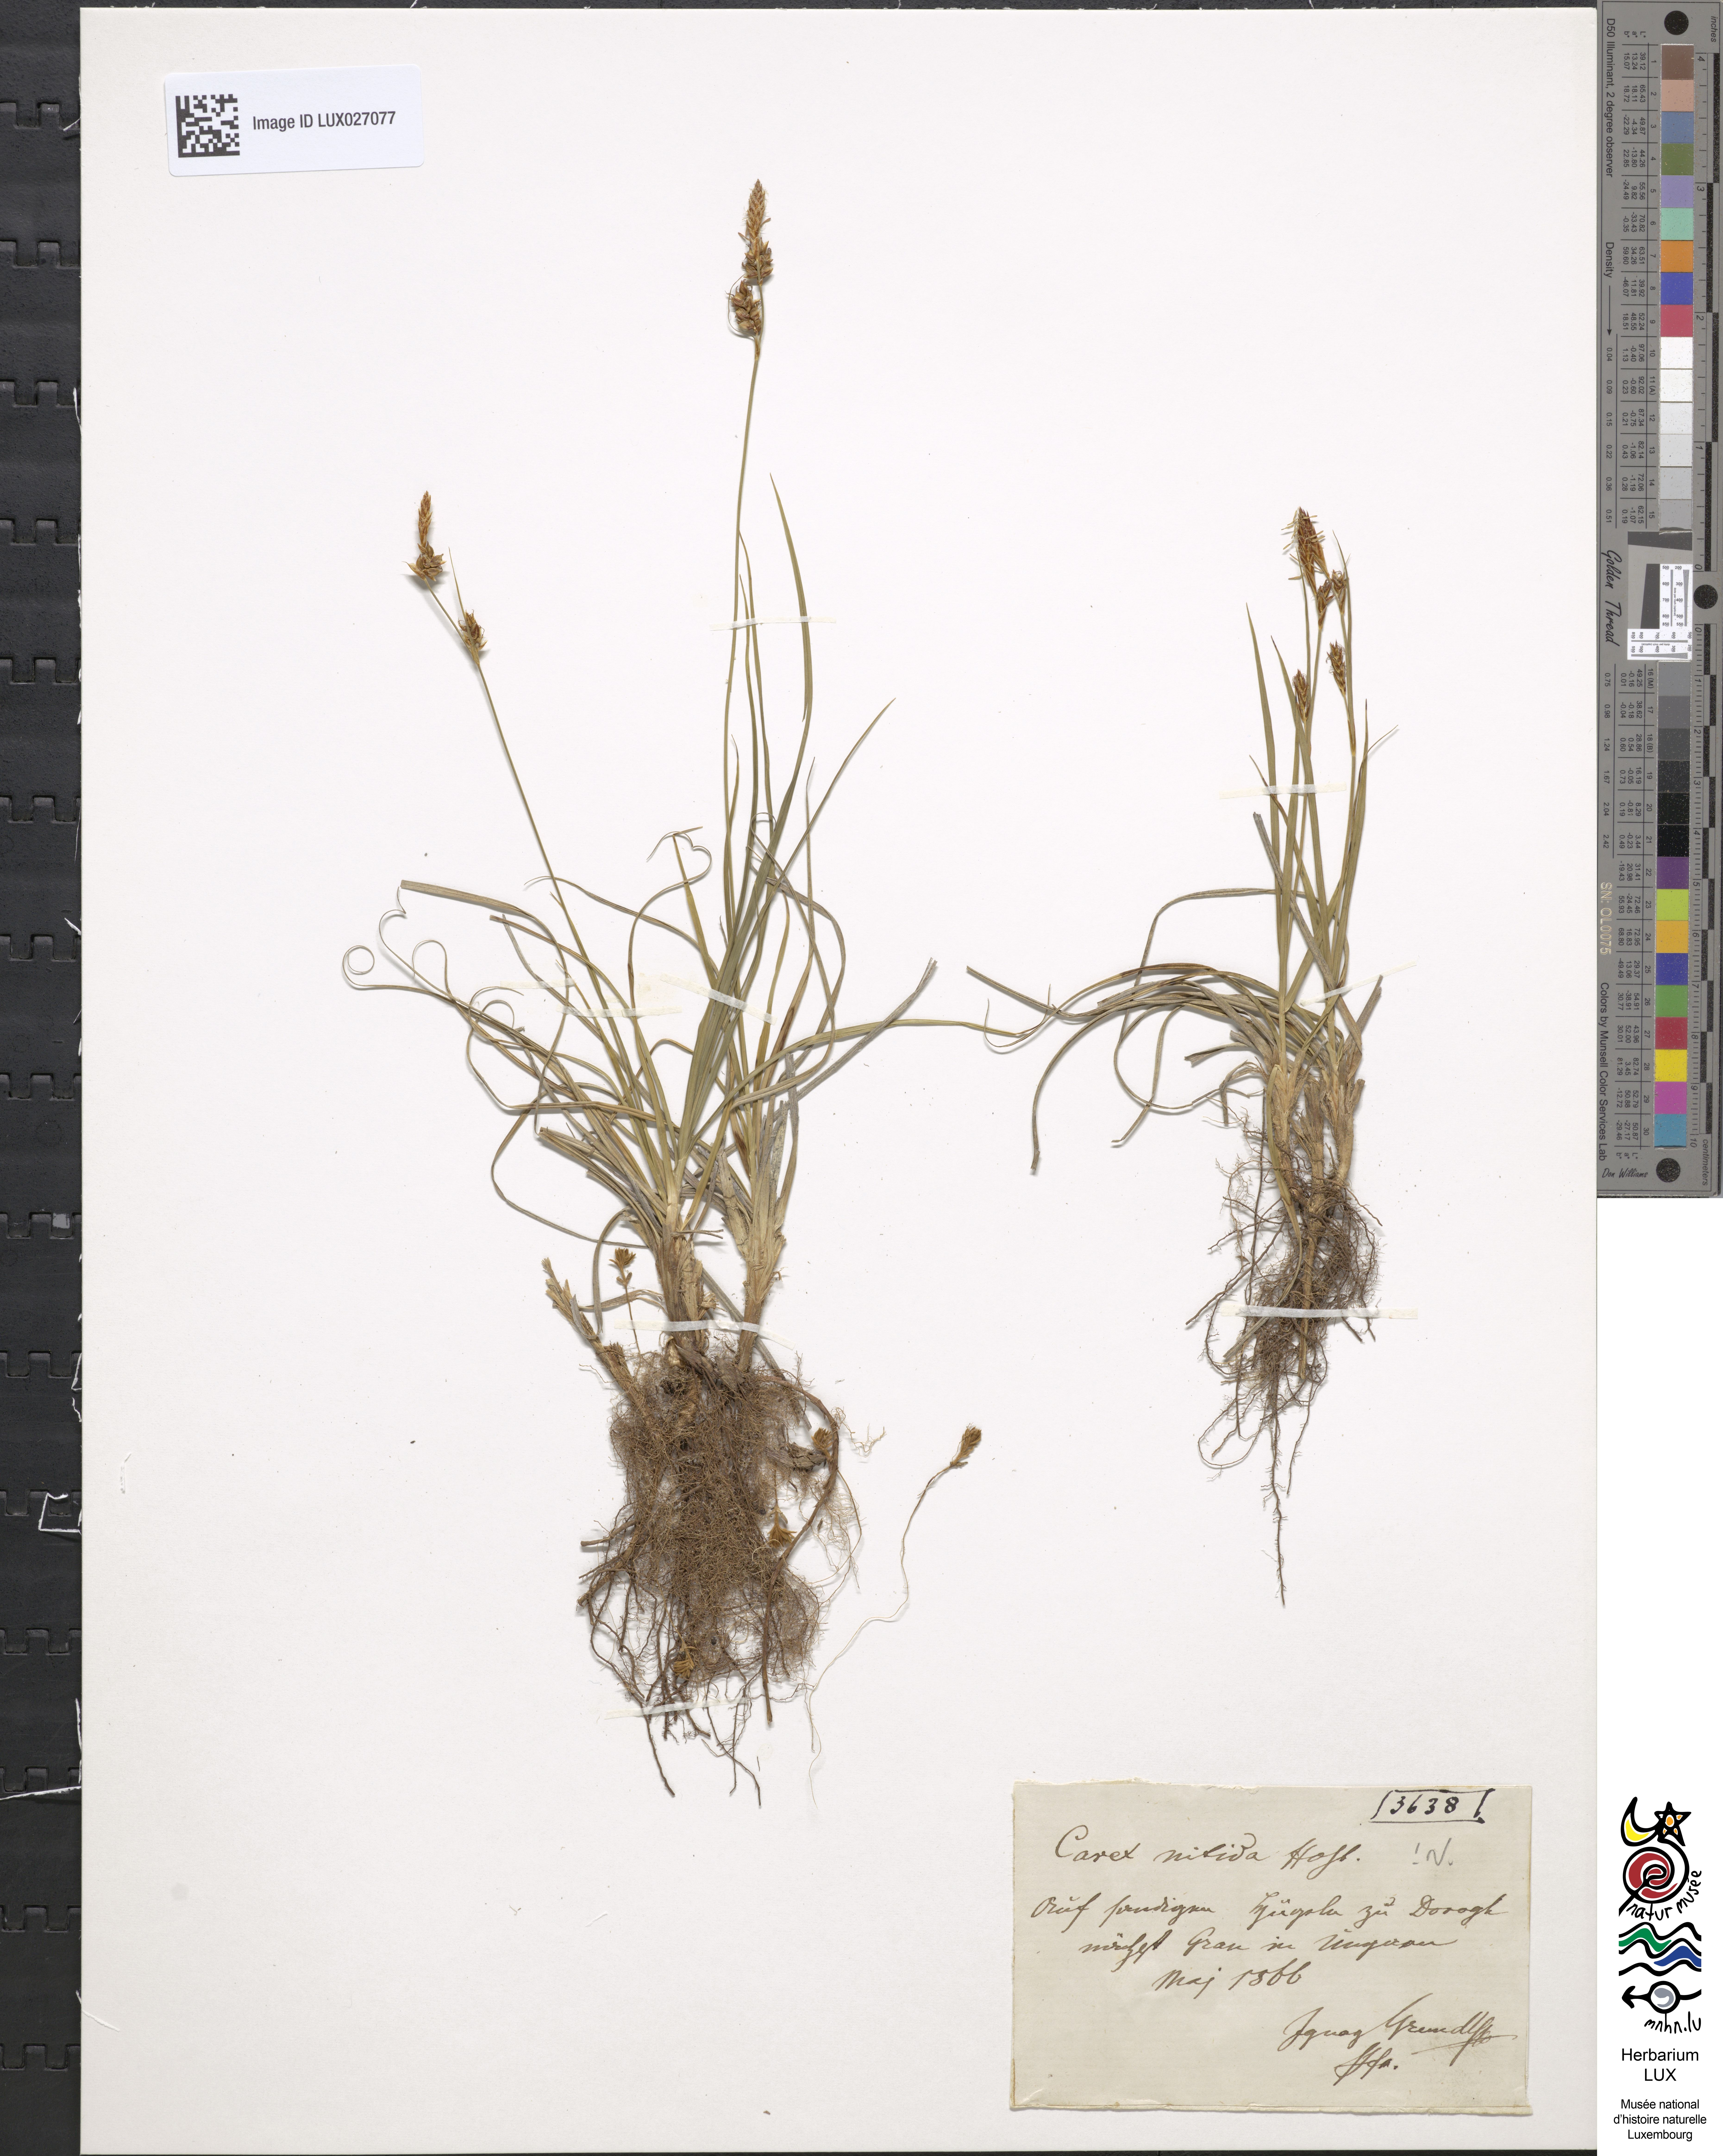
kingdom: Plantae
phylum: Tracheophyta
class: Liliopsida
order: Poales
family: Cyperaceae
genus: Carex
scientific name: Carex liparocarpos
